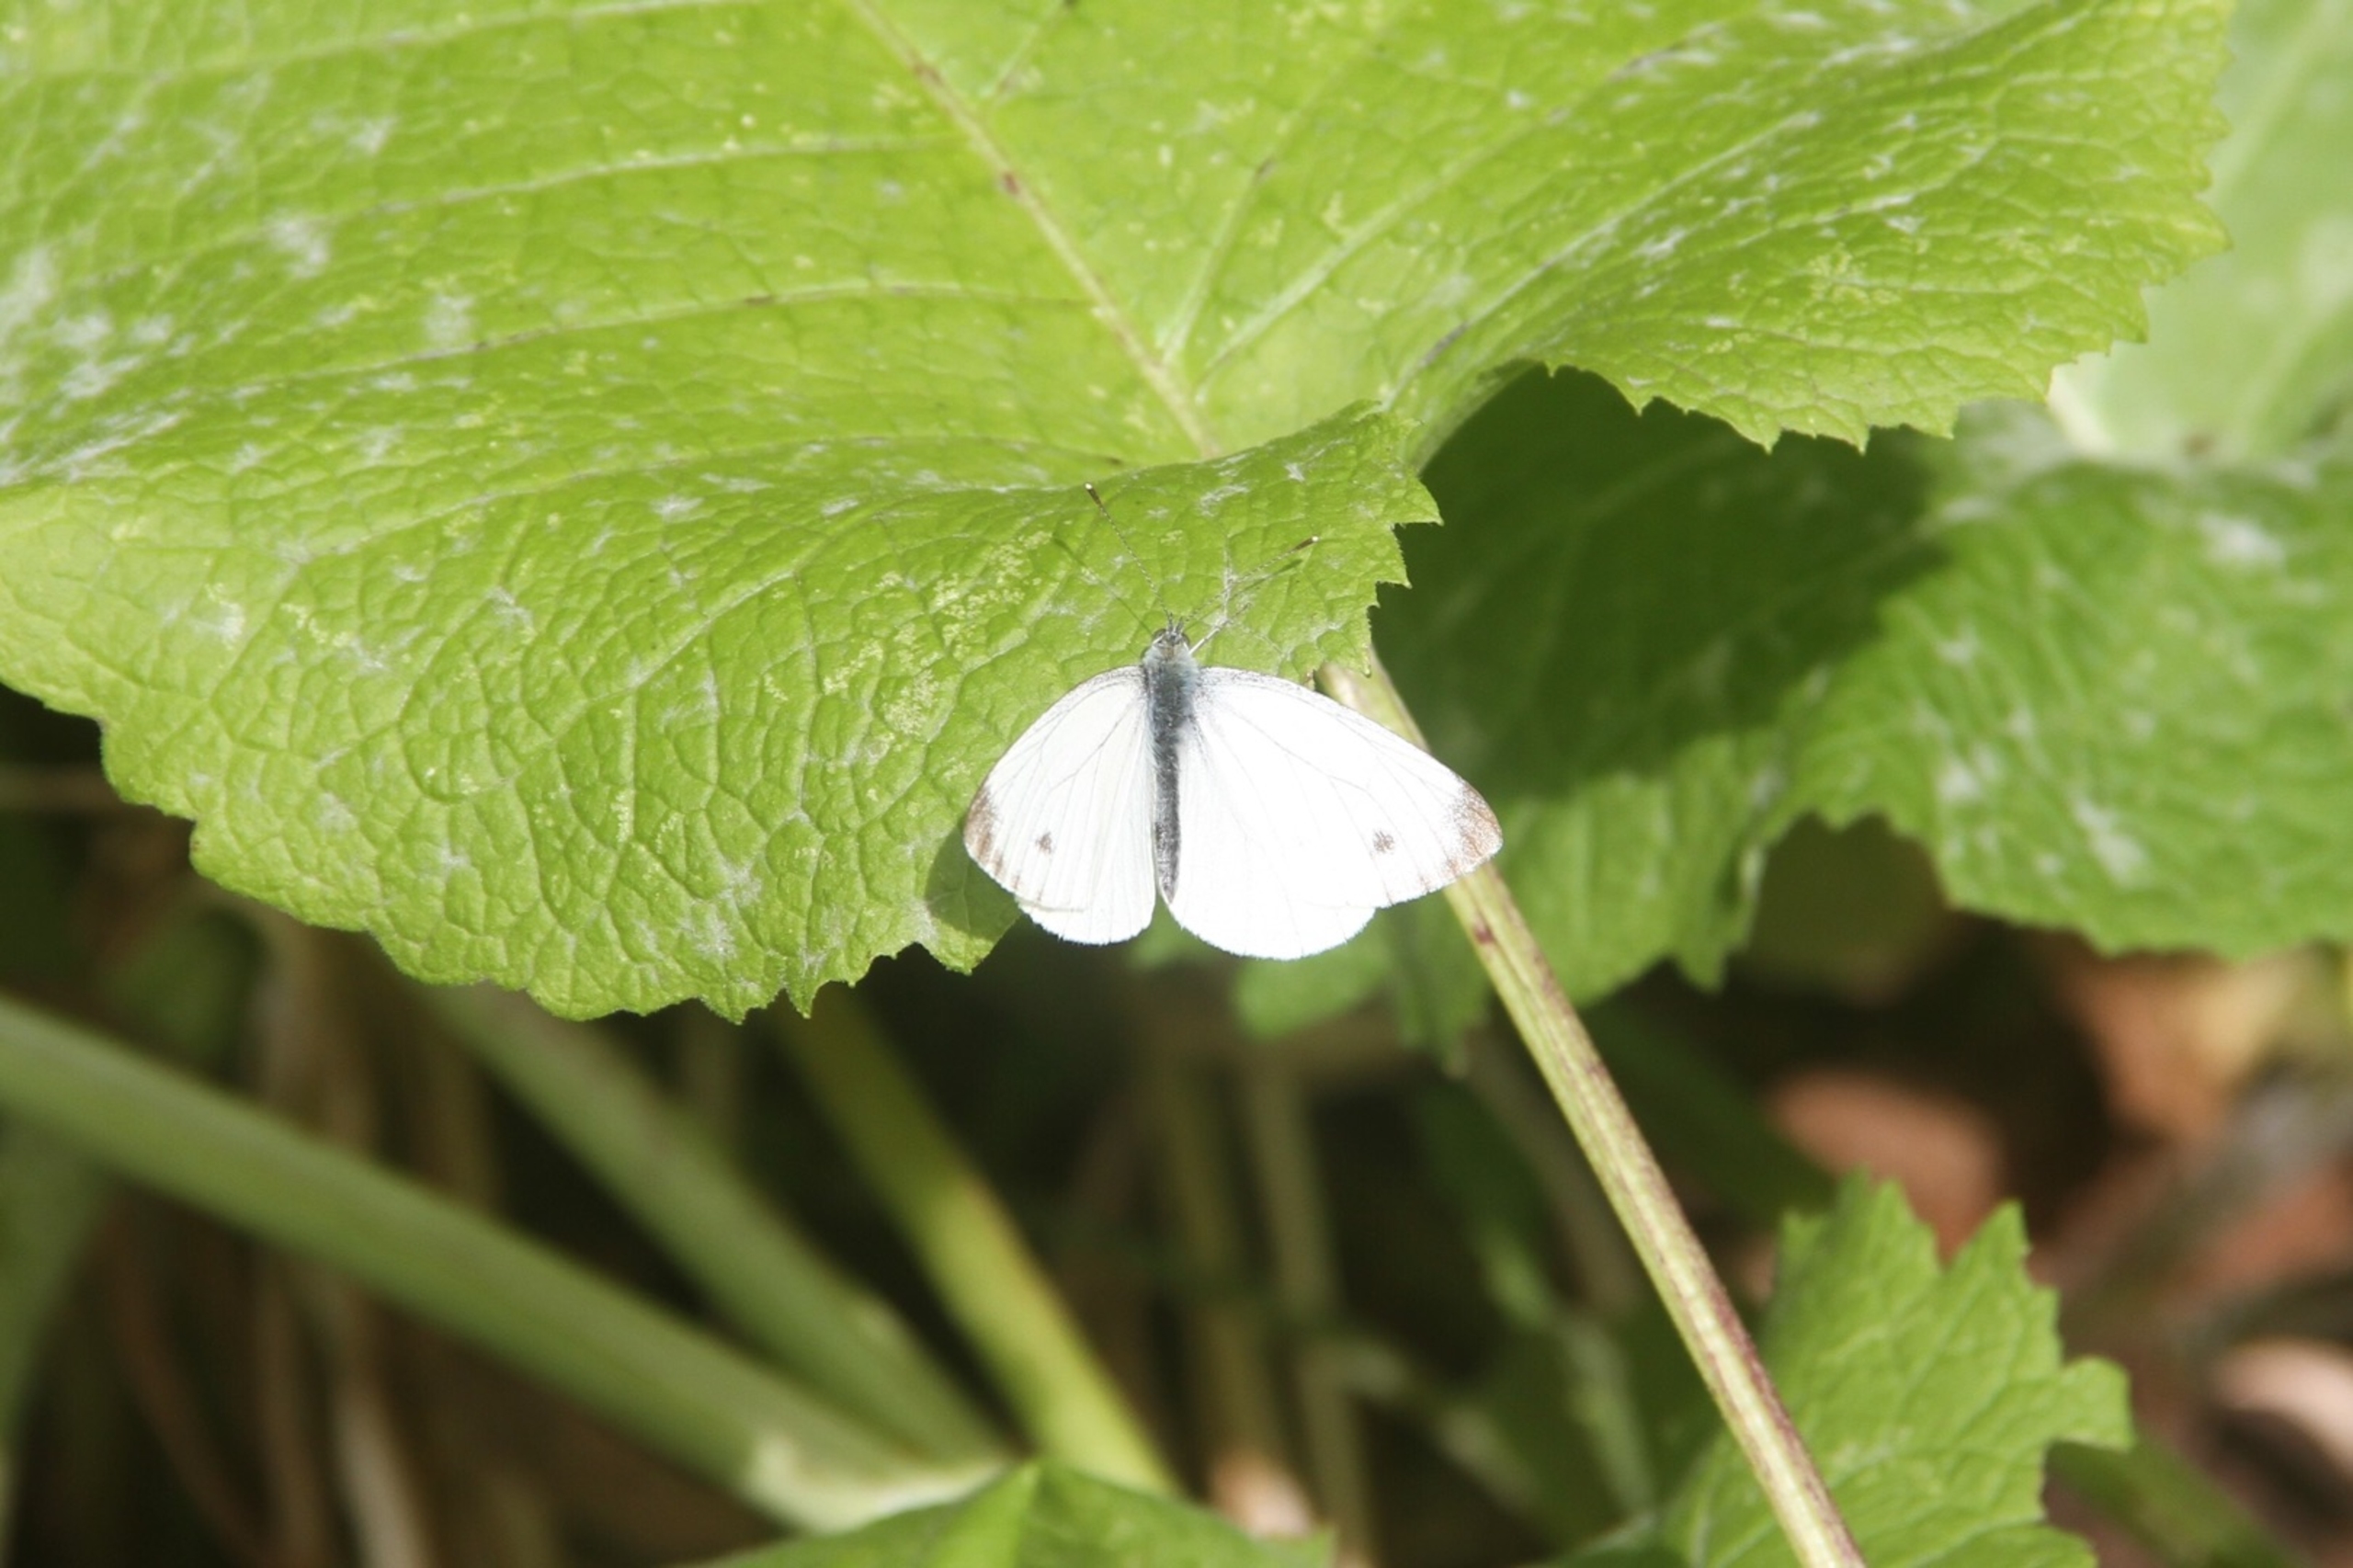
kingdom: Animalia
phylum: Arthropoda
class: Insecta
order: Lepidoptera
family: Pieridae
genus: Pieris
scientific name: Pieris napi
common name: Grønåret kålsommerfugl
